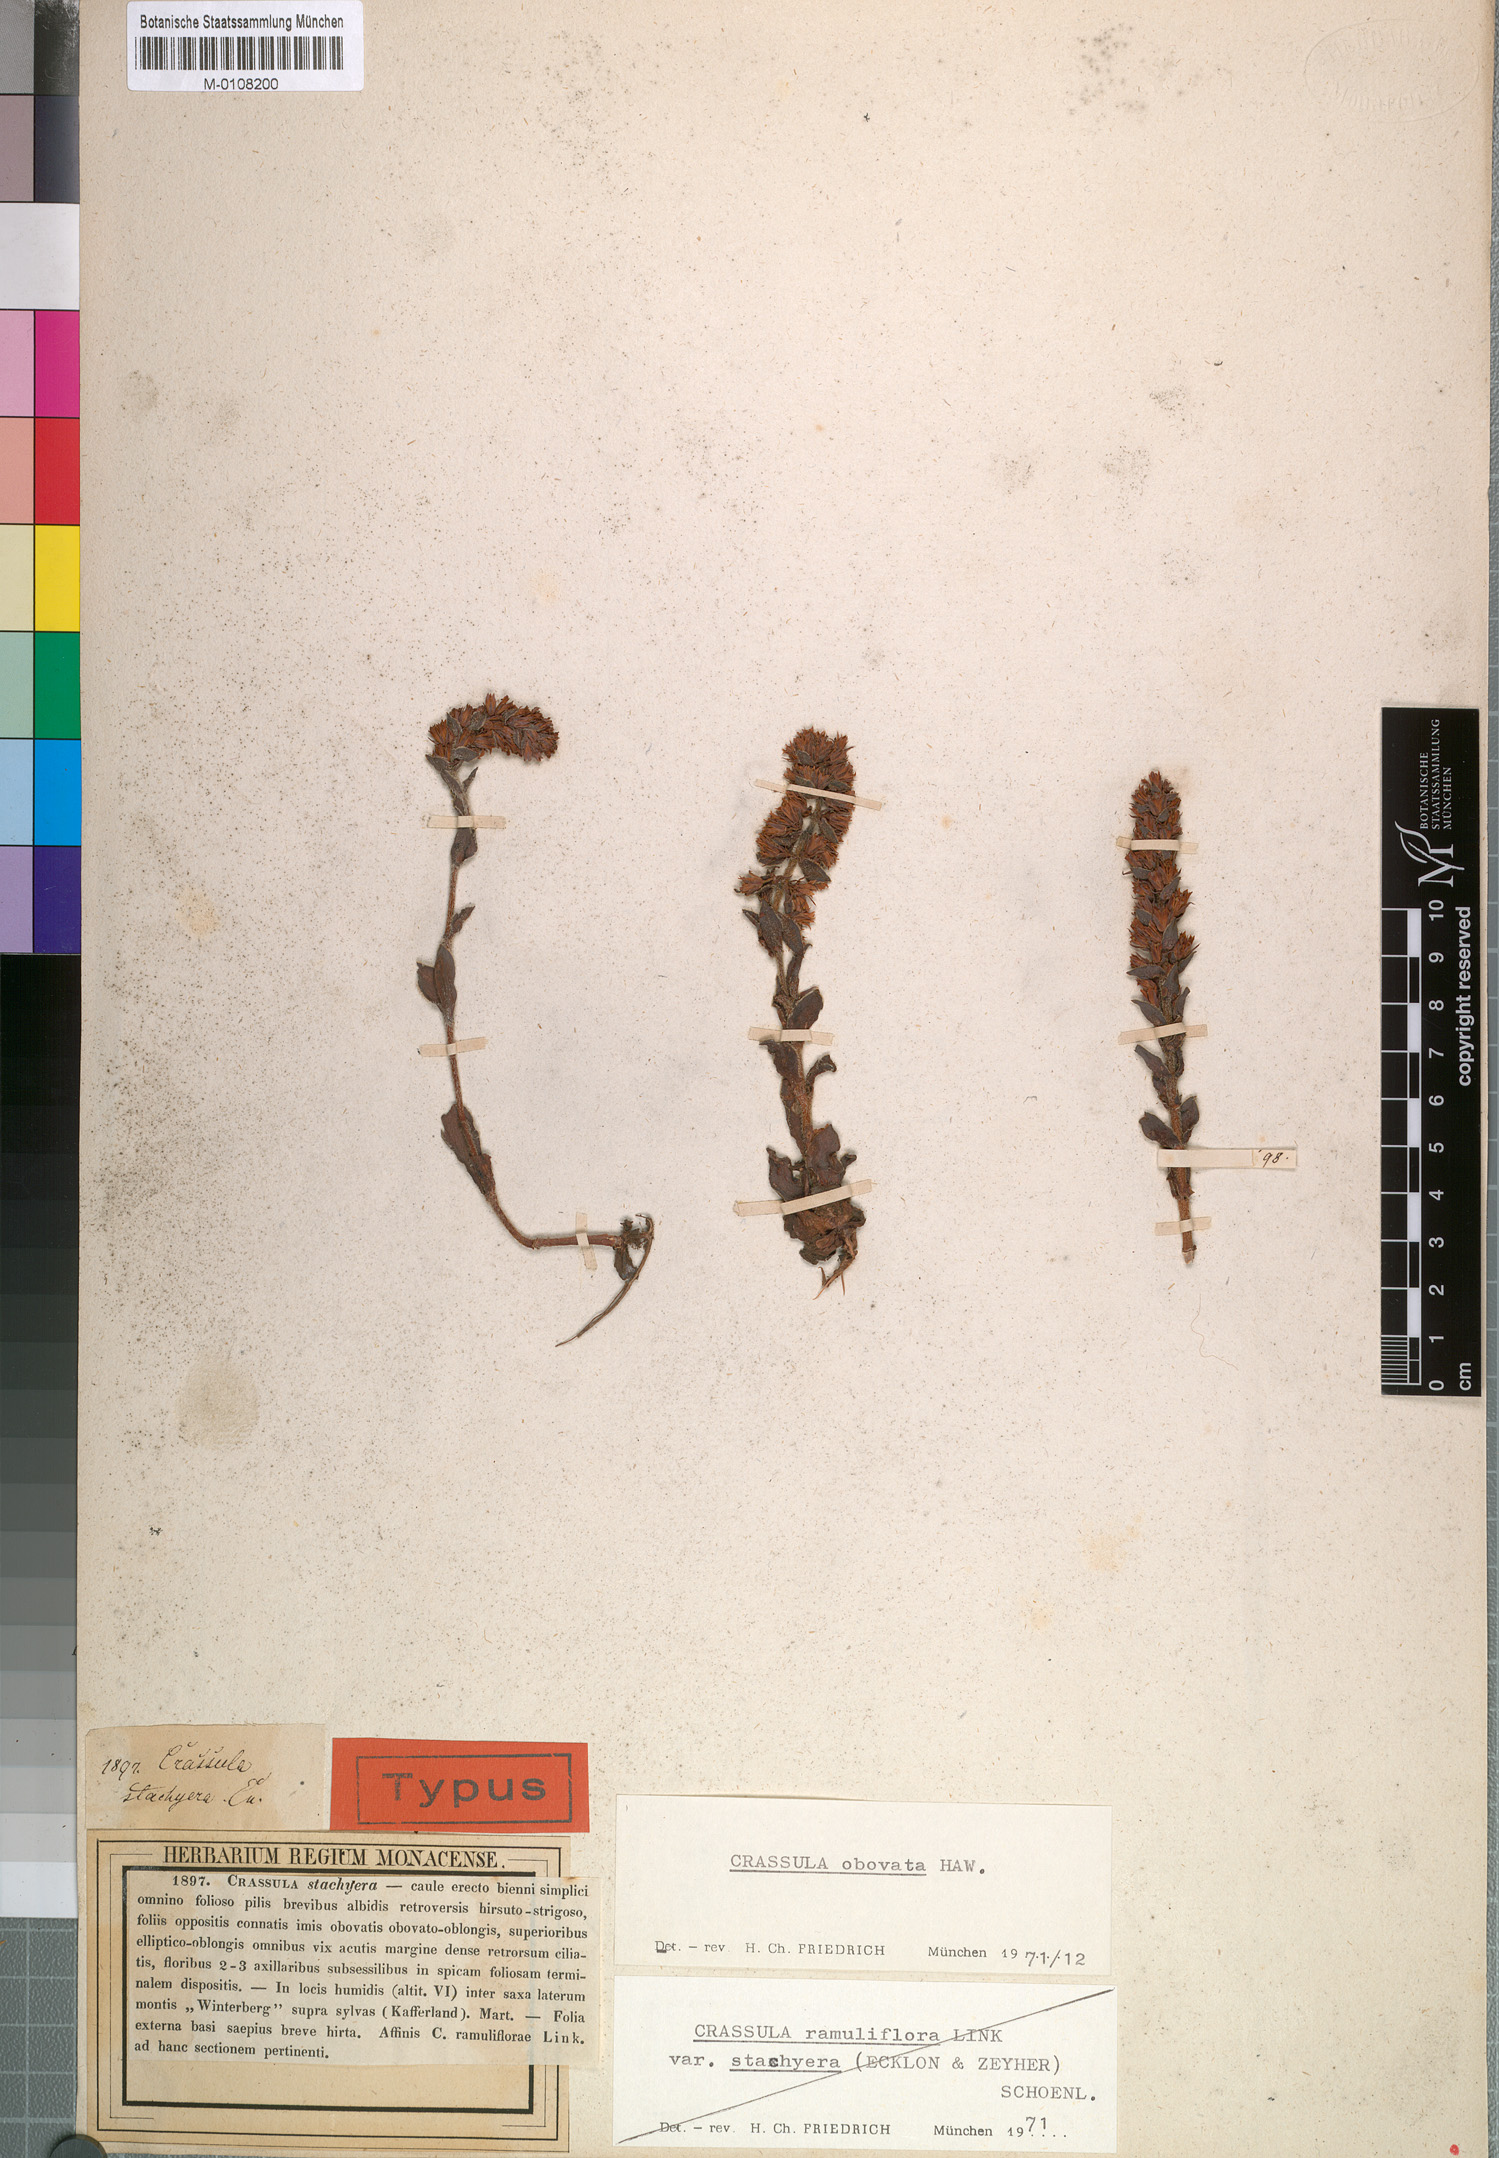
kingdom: Plantae
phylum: Tracheophyta
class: Magnoliopsida
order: Saxifragales
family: Crassulaceae
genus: Crassula
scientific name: Crassula obovata
